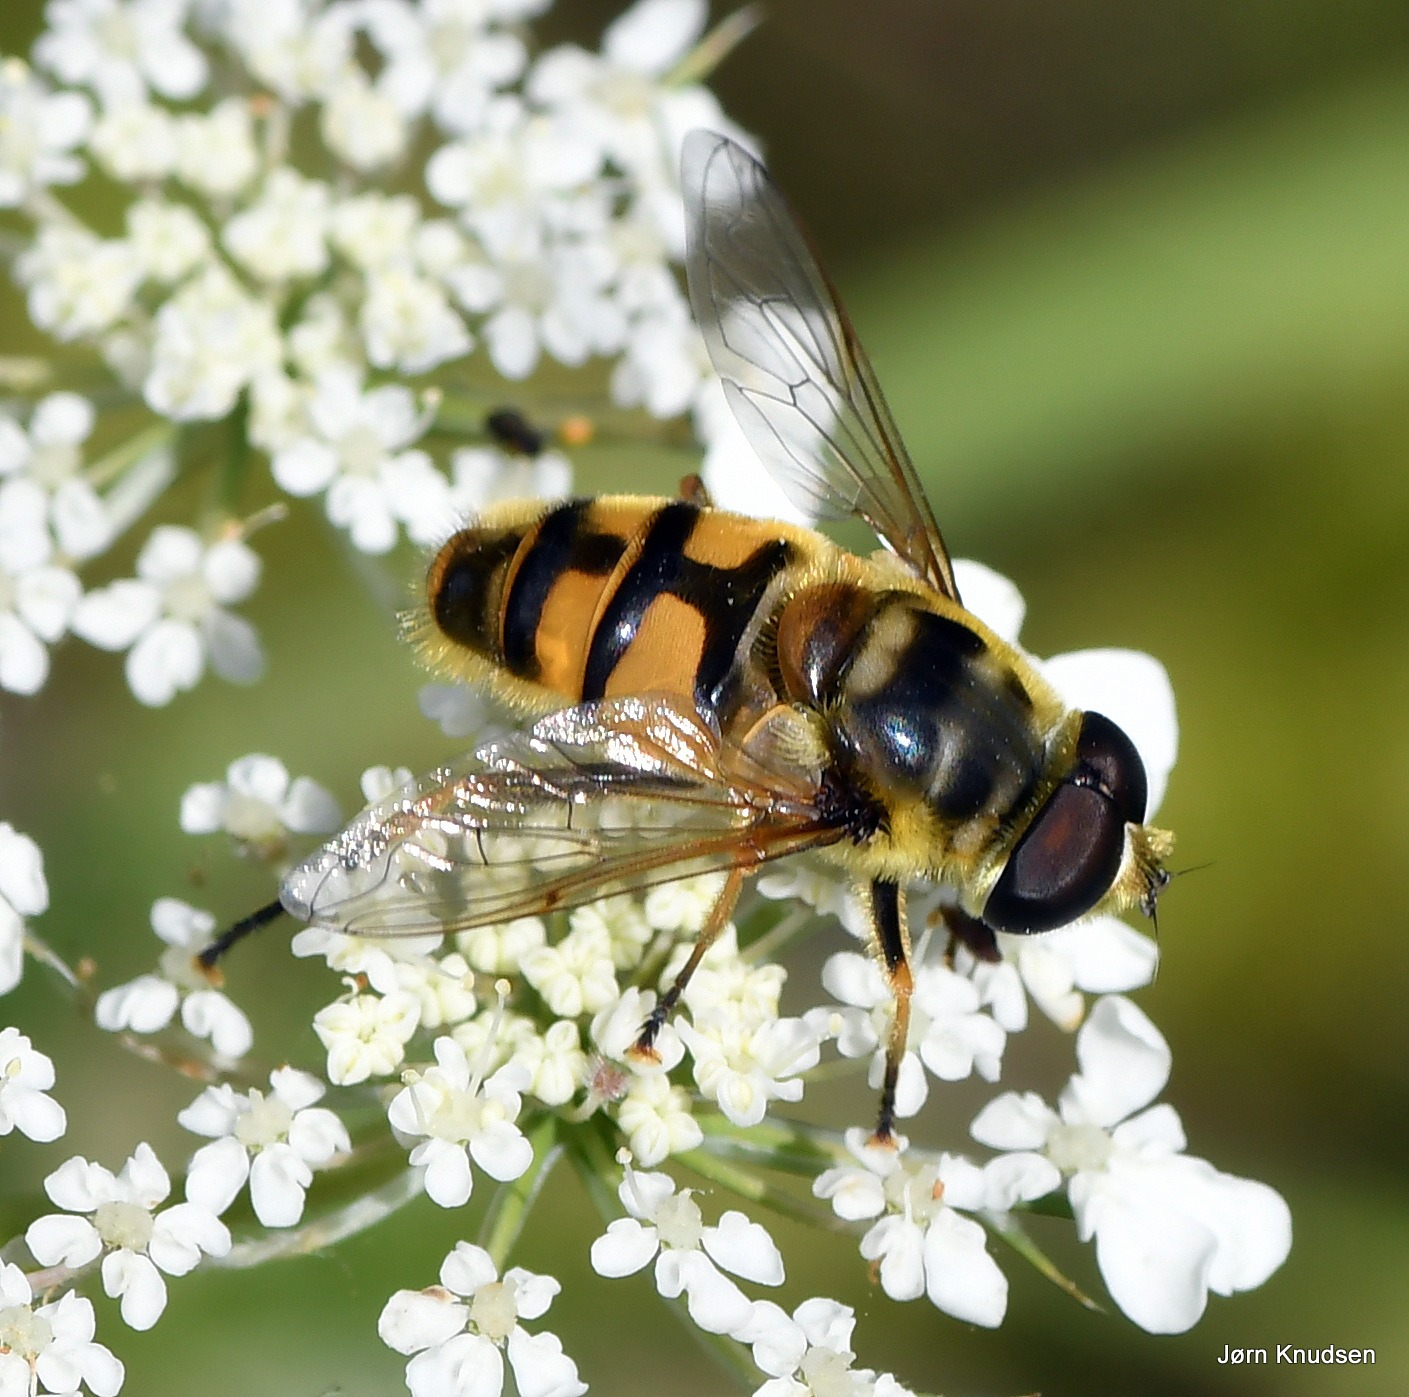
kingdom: Animalia
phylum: Arthropoda
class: Insecta
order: Diptera
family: Syrphidae
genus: Myathropa
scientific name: Myathropa florea
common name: Dødningehoved-svirreflue
